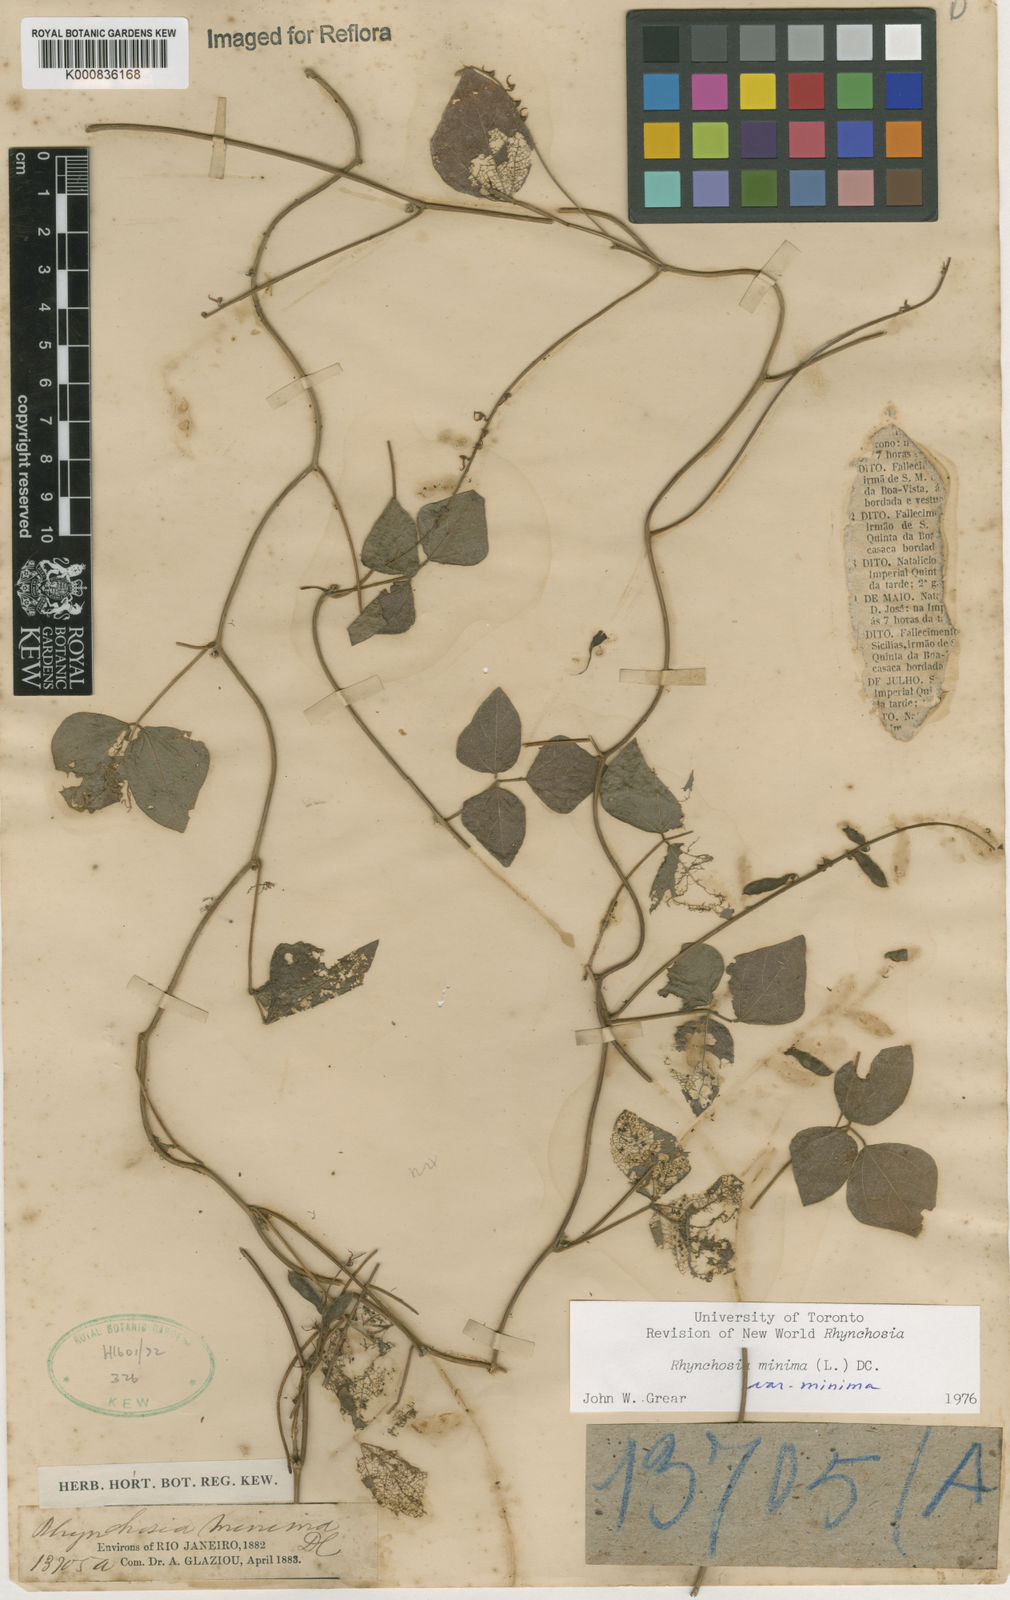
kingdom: Plantae
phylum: Tracheophyta
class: Magnoliopsida
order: Fabales
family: Fabaceae
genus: Rhynchosia
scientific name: Rhynchosia minima
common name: Least snoutbean
